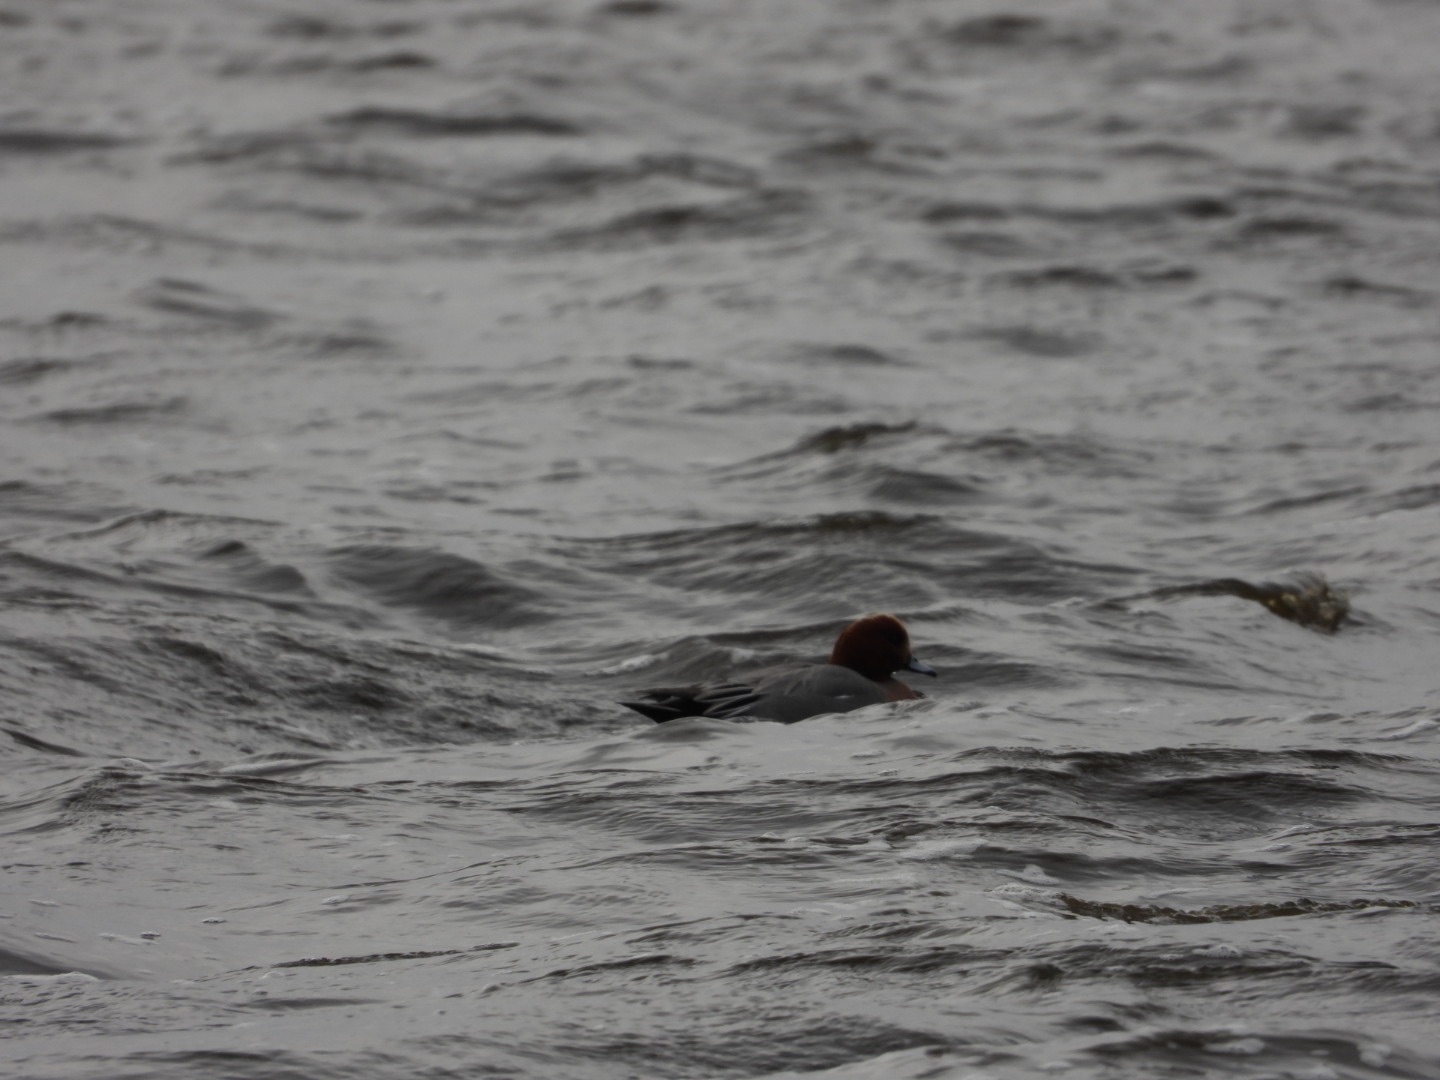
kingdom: Animalia
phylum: Chordata
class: Aves
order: Anseriformes
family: Anatidae
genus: Mareca
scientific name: Mareca penelope
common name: Pibeand
